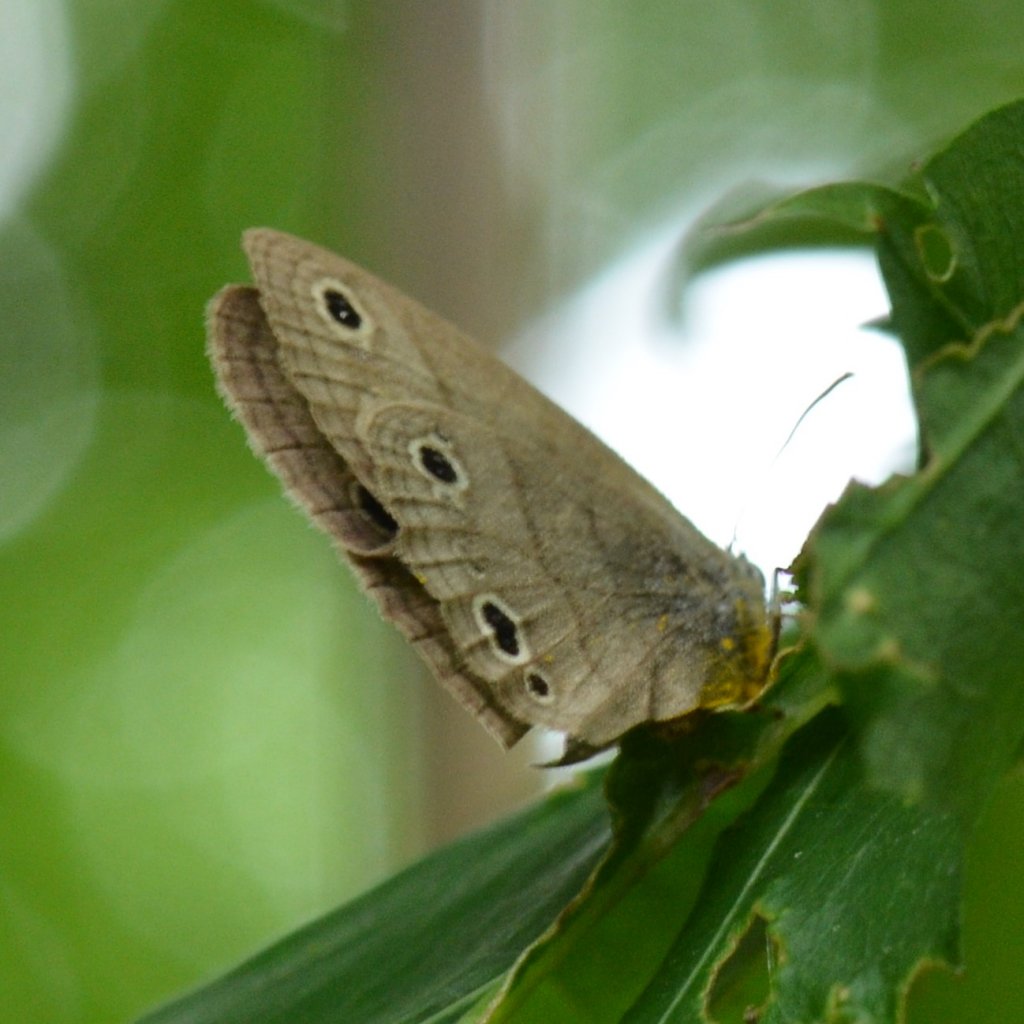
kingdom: Animalia
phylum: Arthropoda
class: Insecta
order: Lepidoptera
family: Nymphalidae
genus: Euptychia
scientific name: Euptychia cymela
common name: Little Wood Satyr
